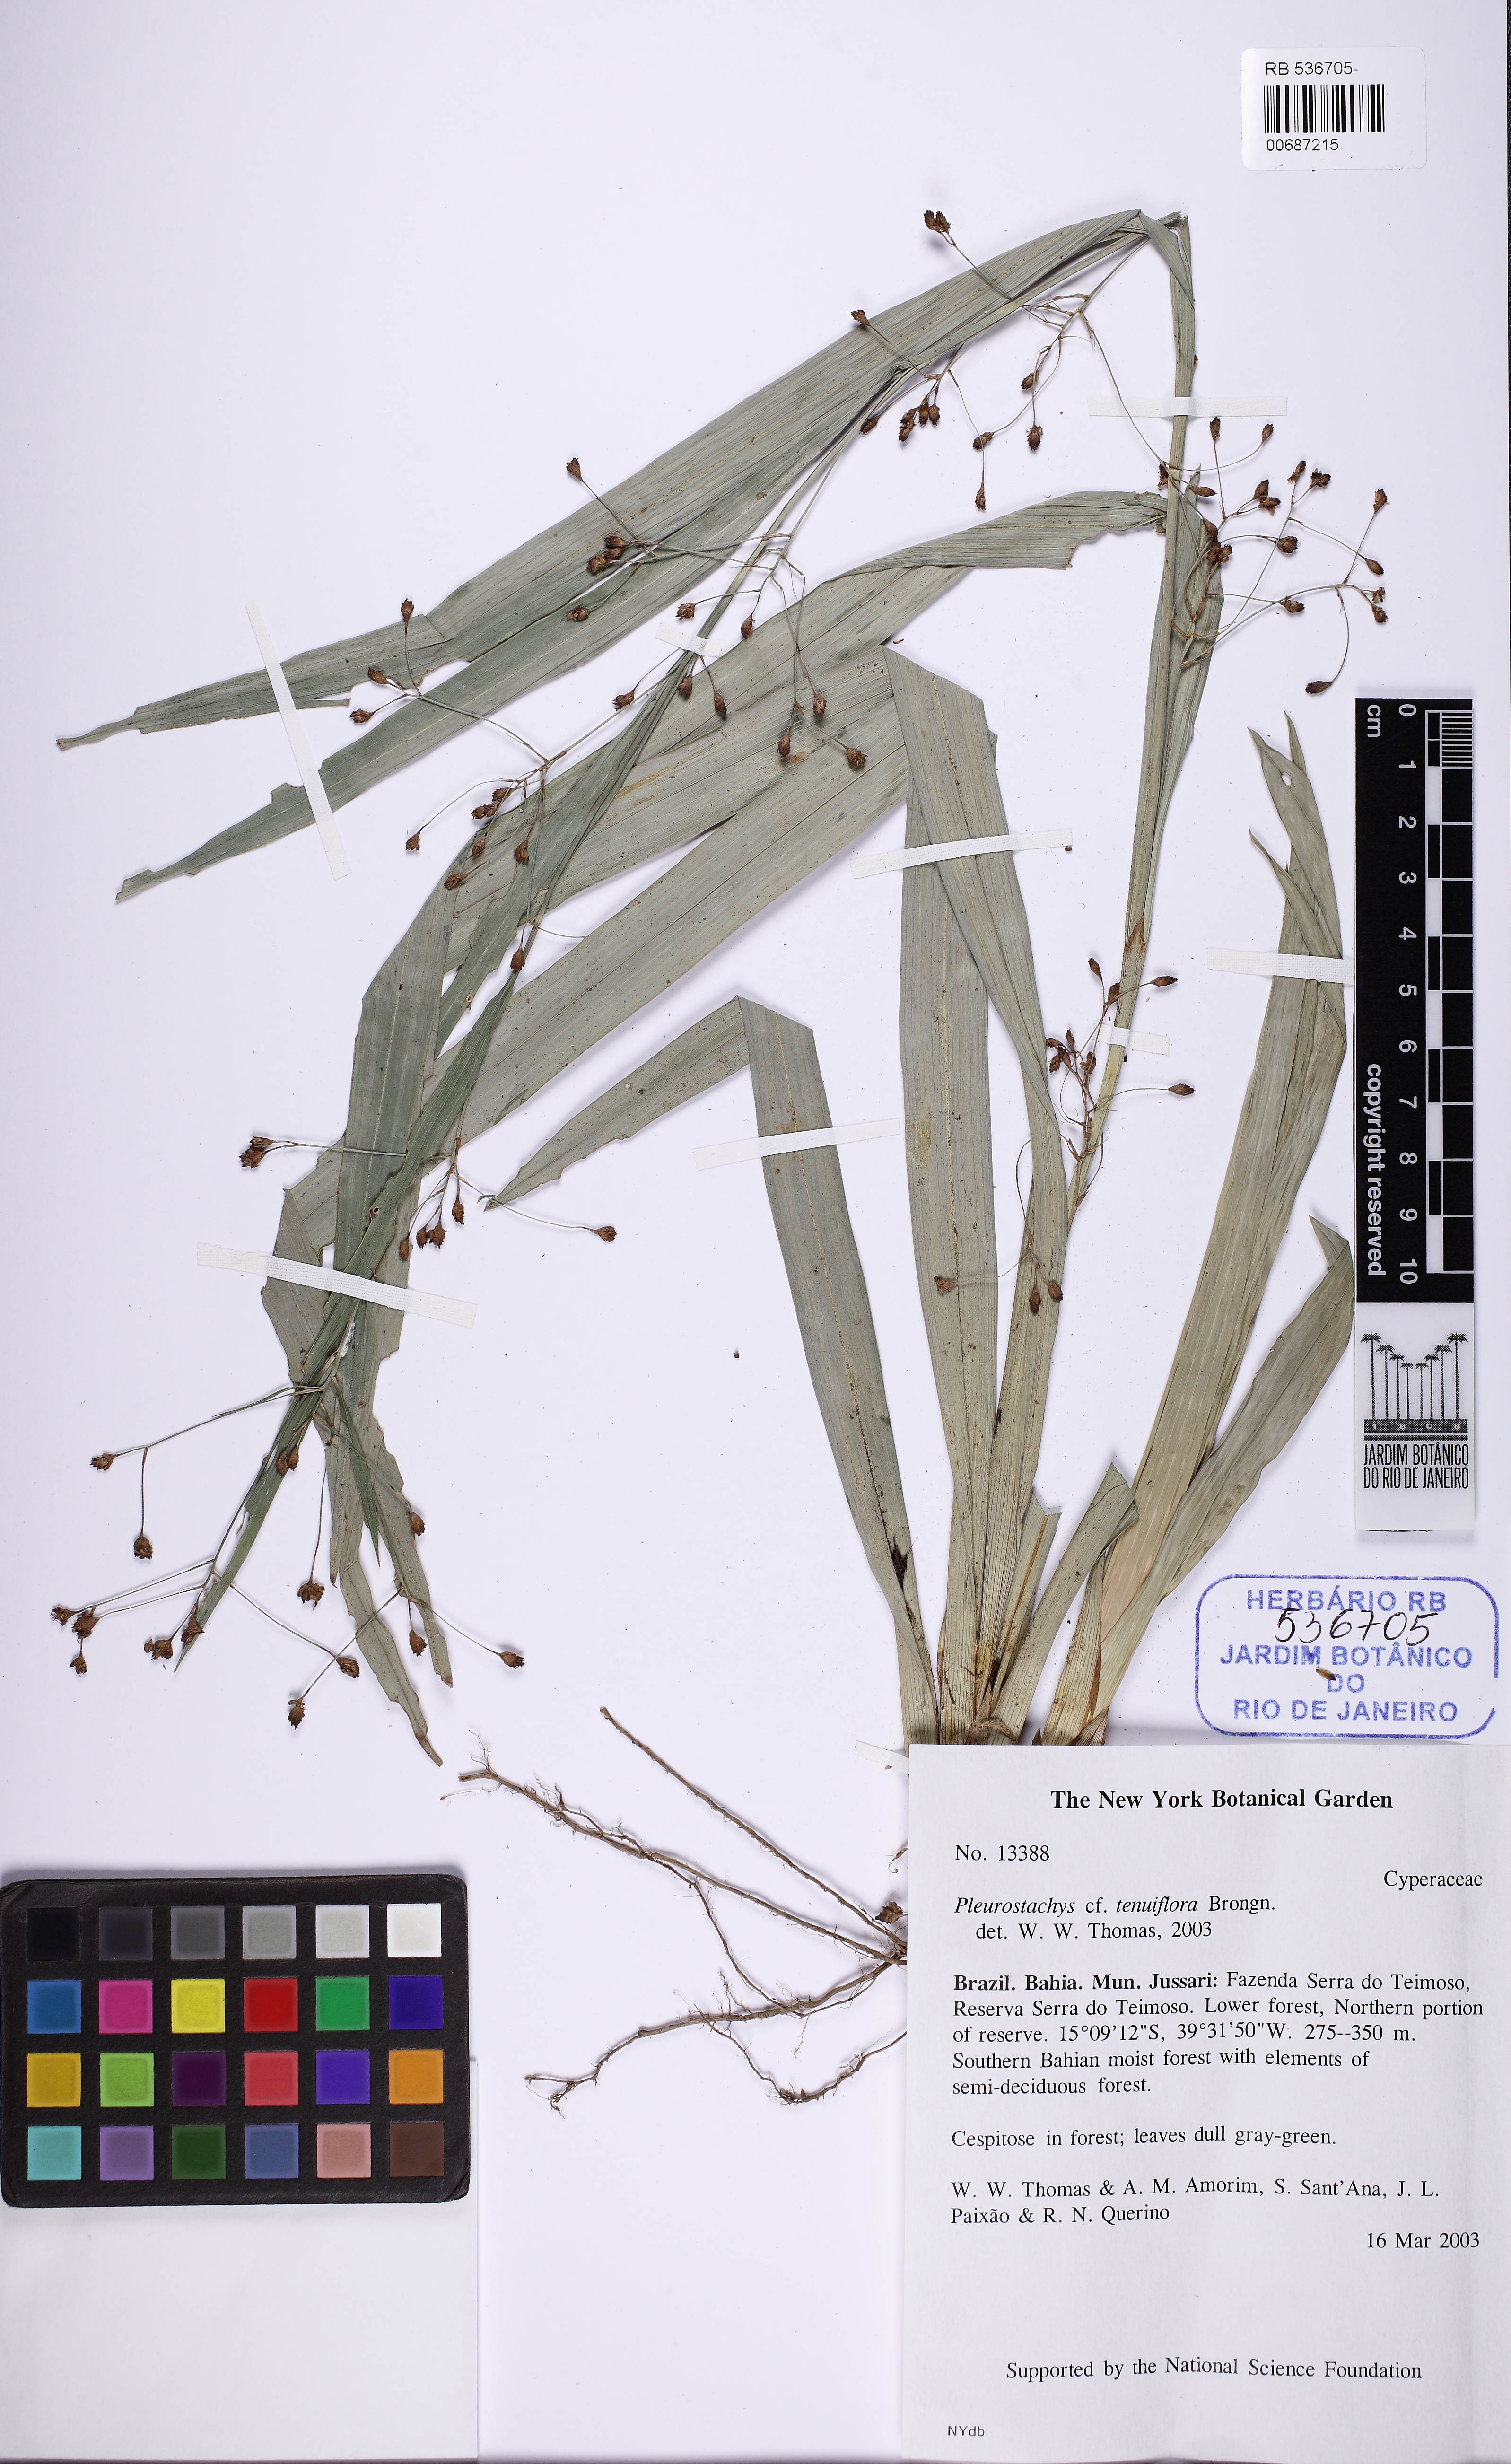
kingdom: Plantae
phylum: Tracheophyta
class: Liliopsida
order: Poales
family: Cyperaceae
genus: Rhynchospora
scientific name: Rhynchospora tenuiflora
